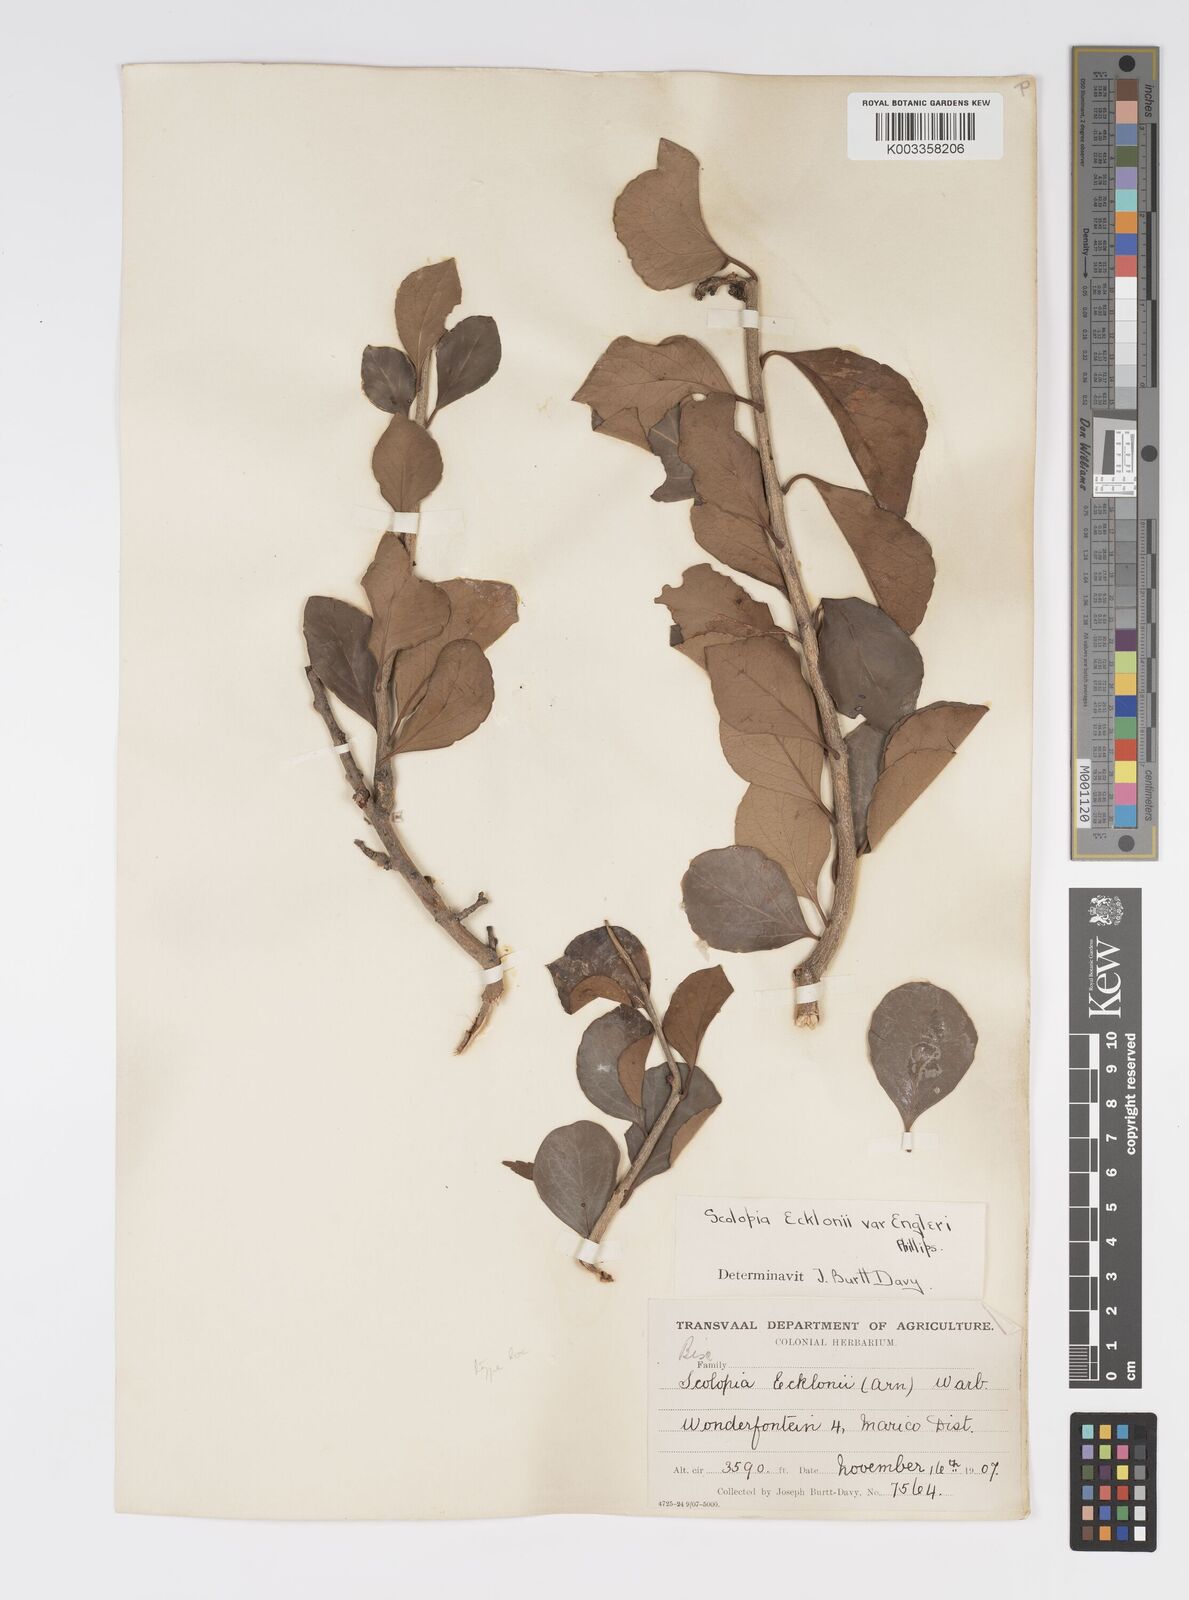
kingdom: Plantae
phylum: Tracheophyta
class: Magnoliopsida
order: Malpighiales
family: Salicaceae
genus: Scolopia
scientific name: Scolopia zeyheri
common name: Thorn pear
